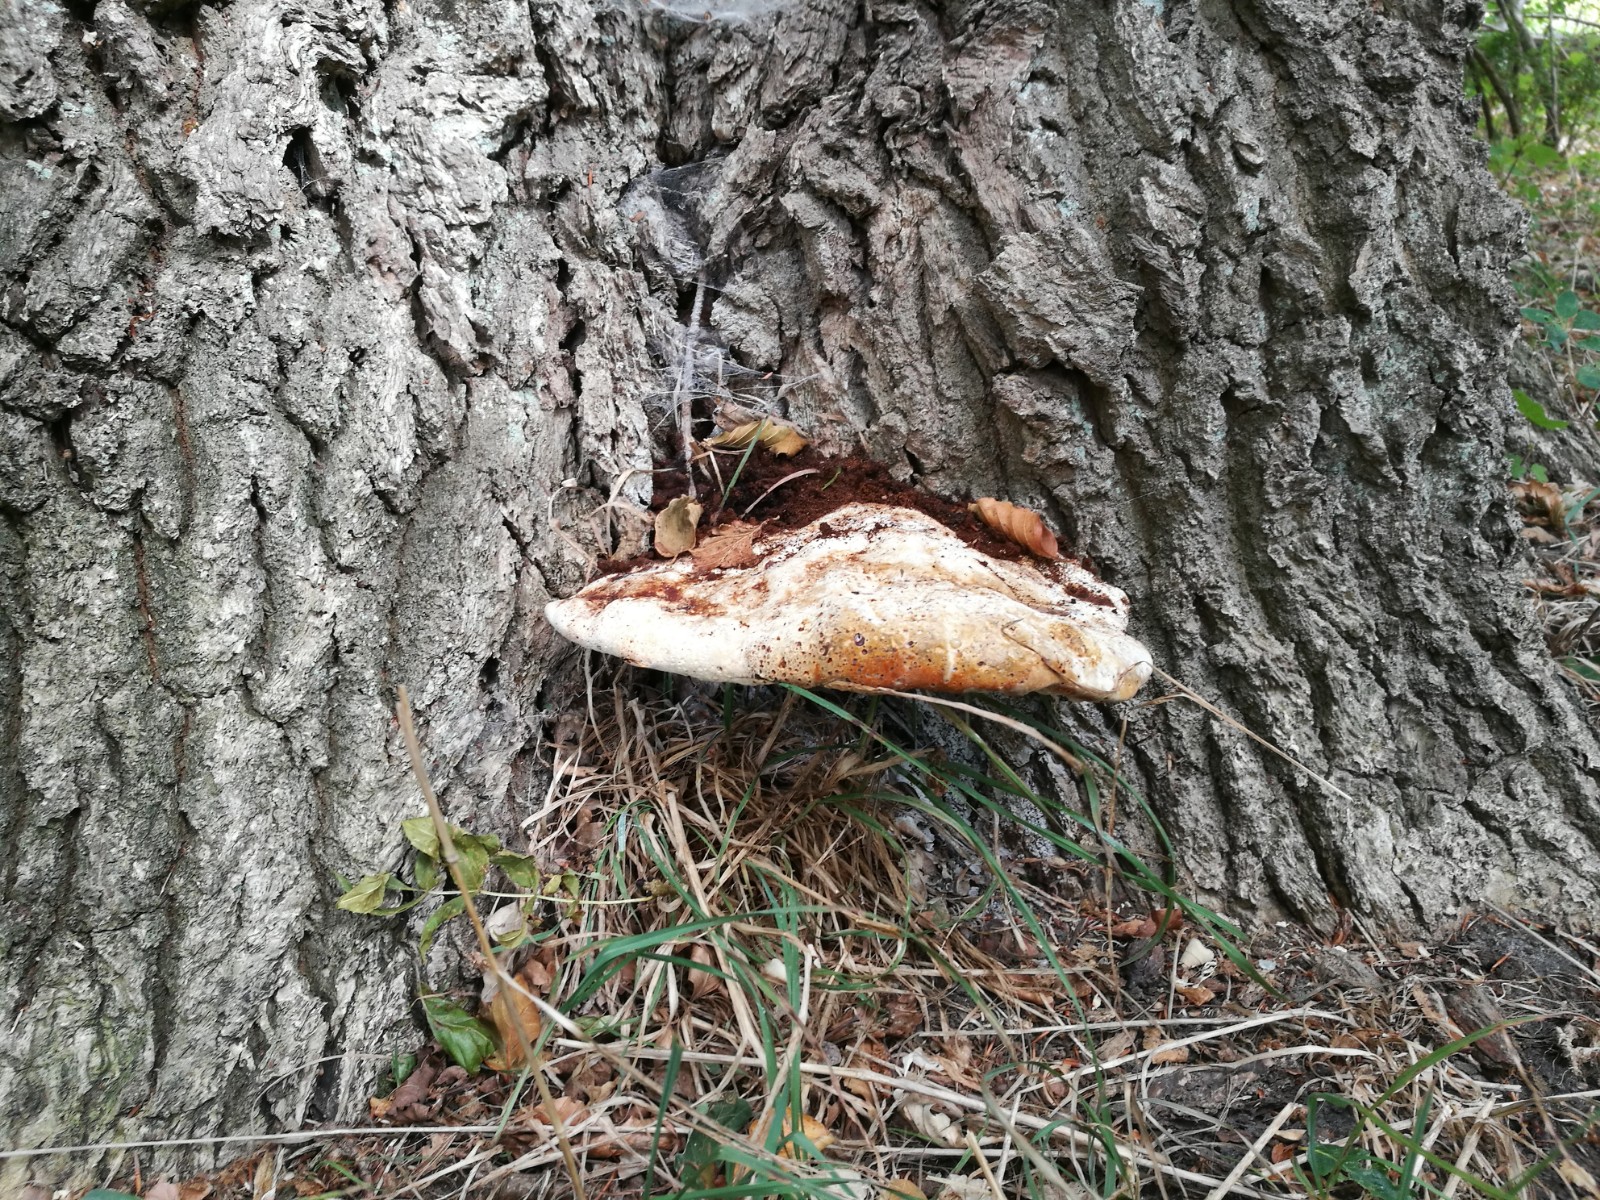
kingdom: Fungi
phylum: Basidiomycota
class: Agaricomycetes
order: Hymenochaetales
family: Hymenochaetaceae
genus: Pseudoinonotus
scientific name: Pseudoinonotus dryadeus
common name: ege-spejlporesvamp
